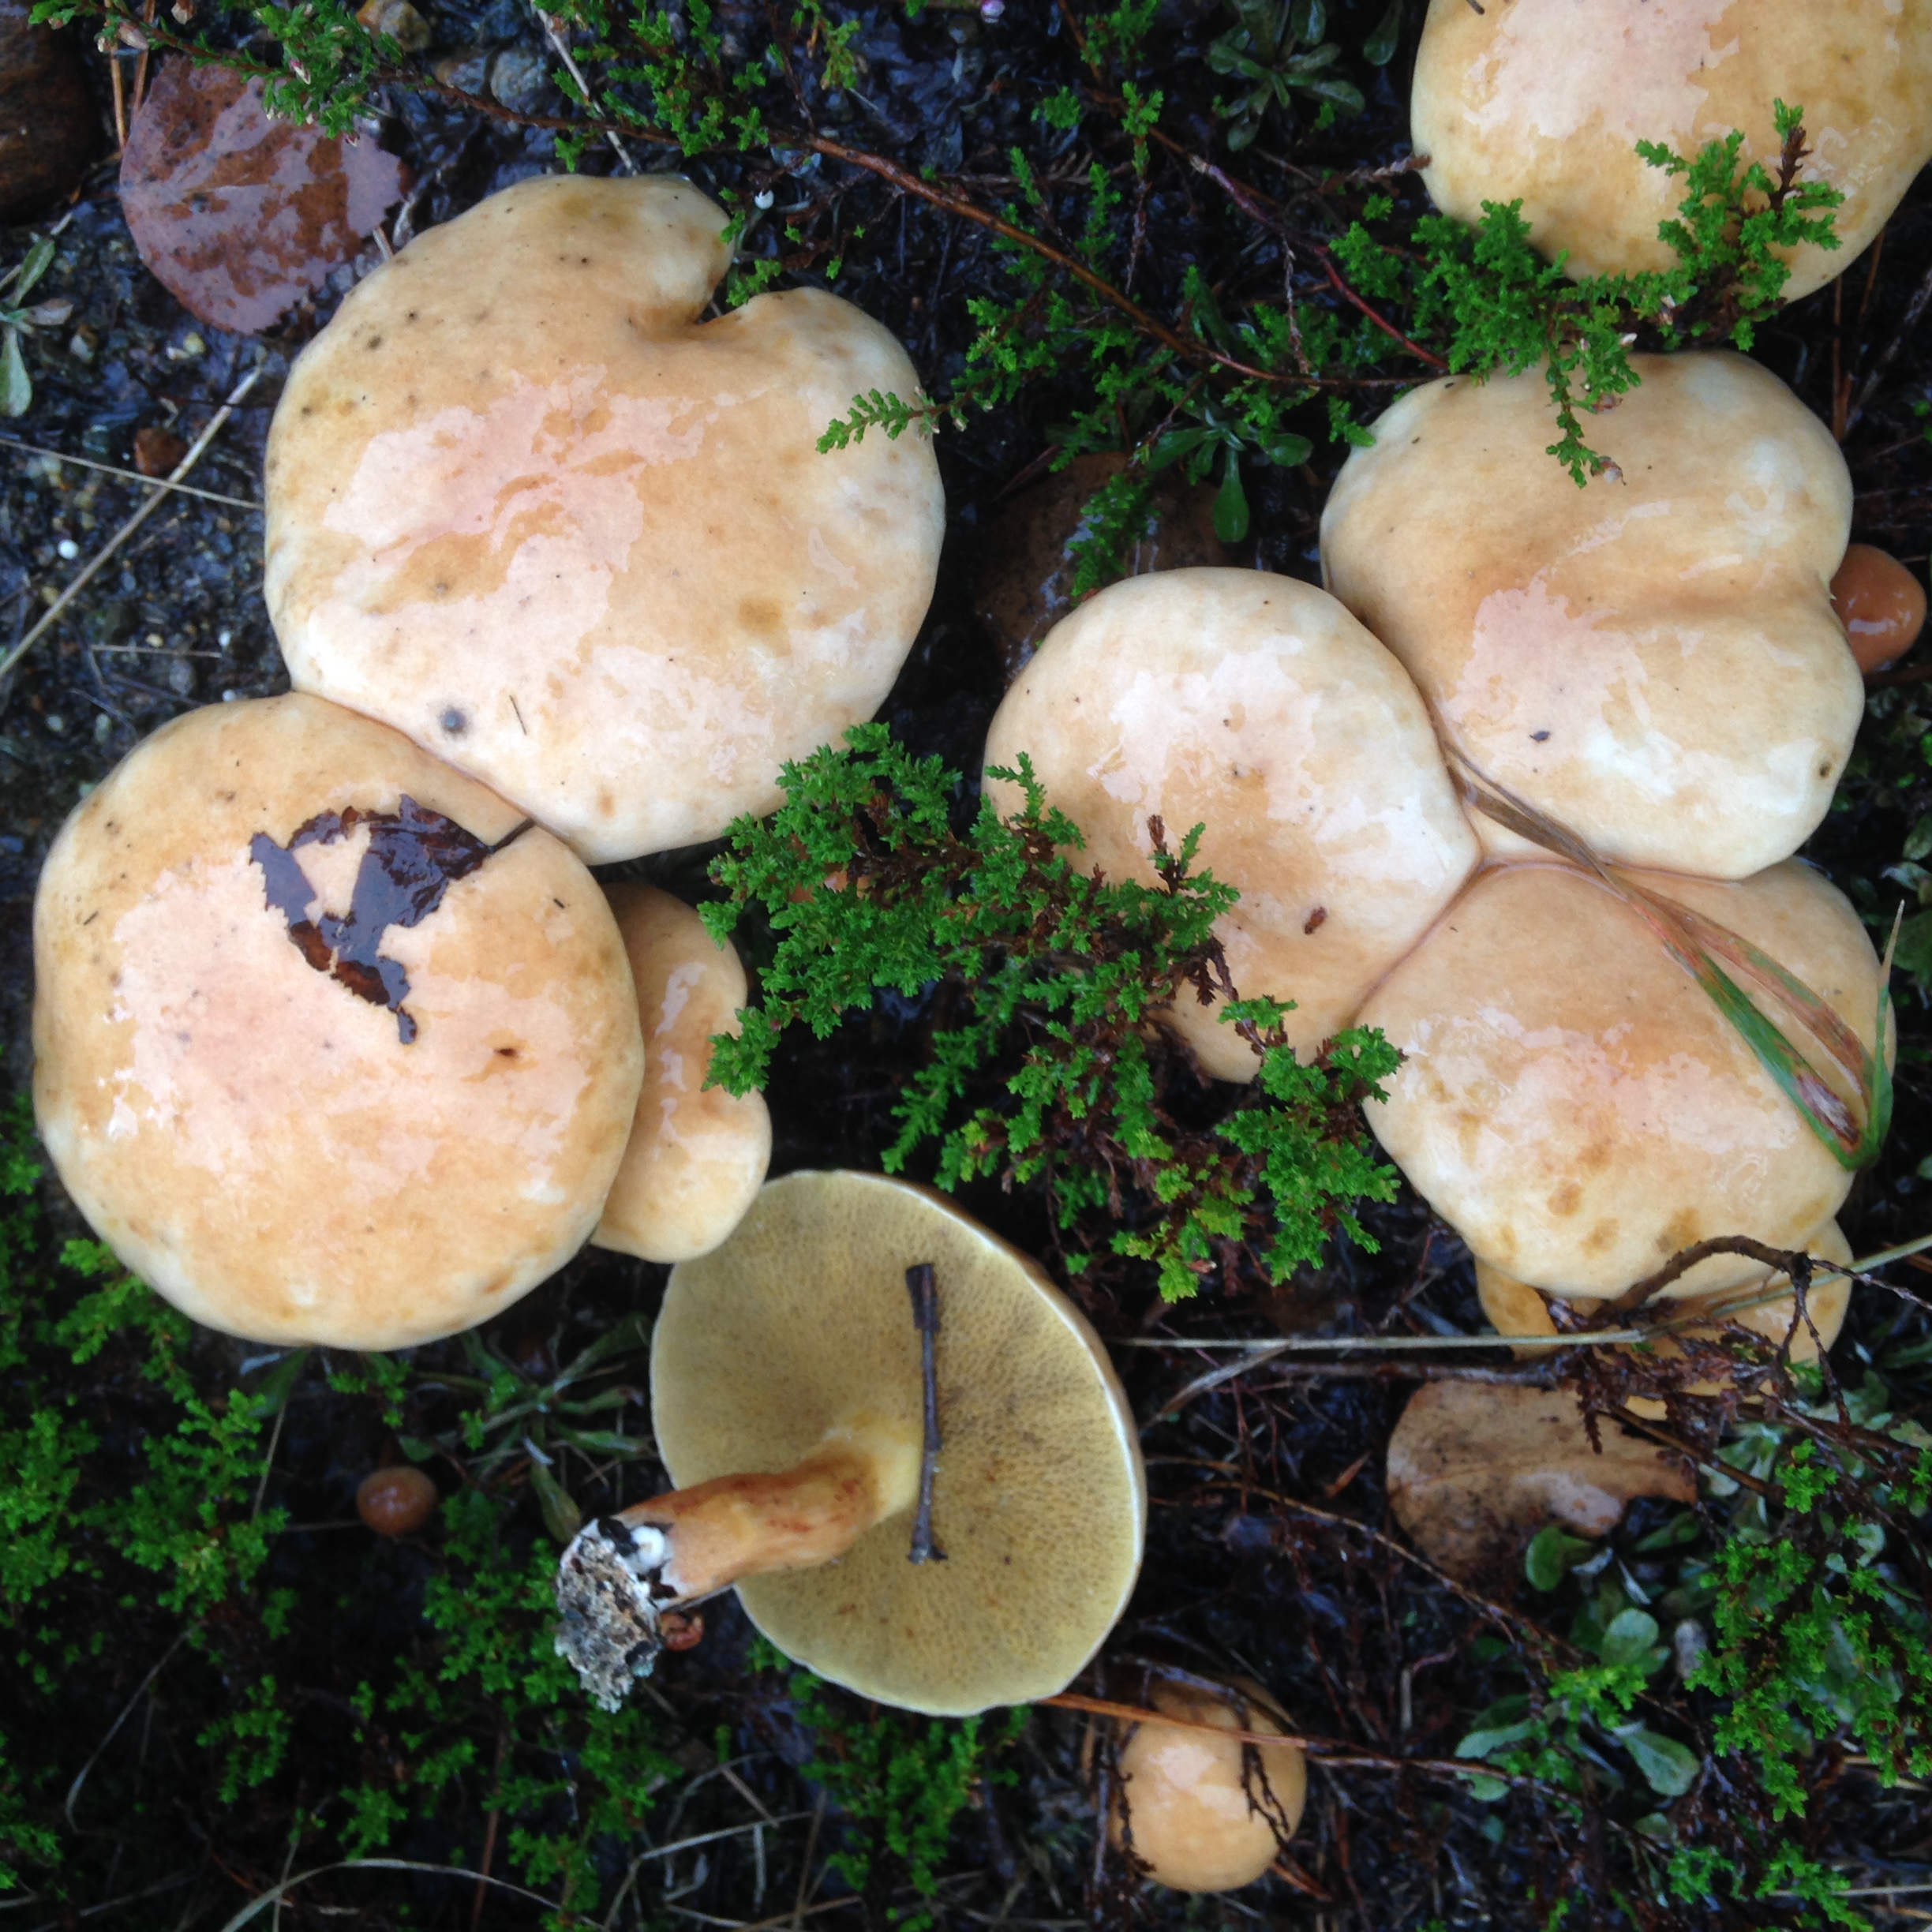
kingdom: Fungi
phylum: Basidiomycota
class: Agaricomycetes
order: Boletales
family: Suillaceae
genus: Suillus
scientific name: Suillus bovinus
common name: Bovine bolete
